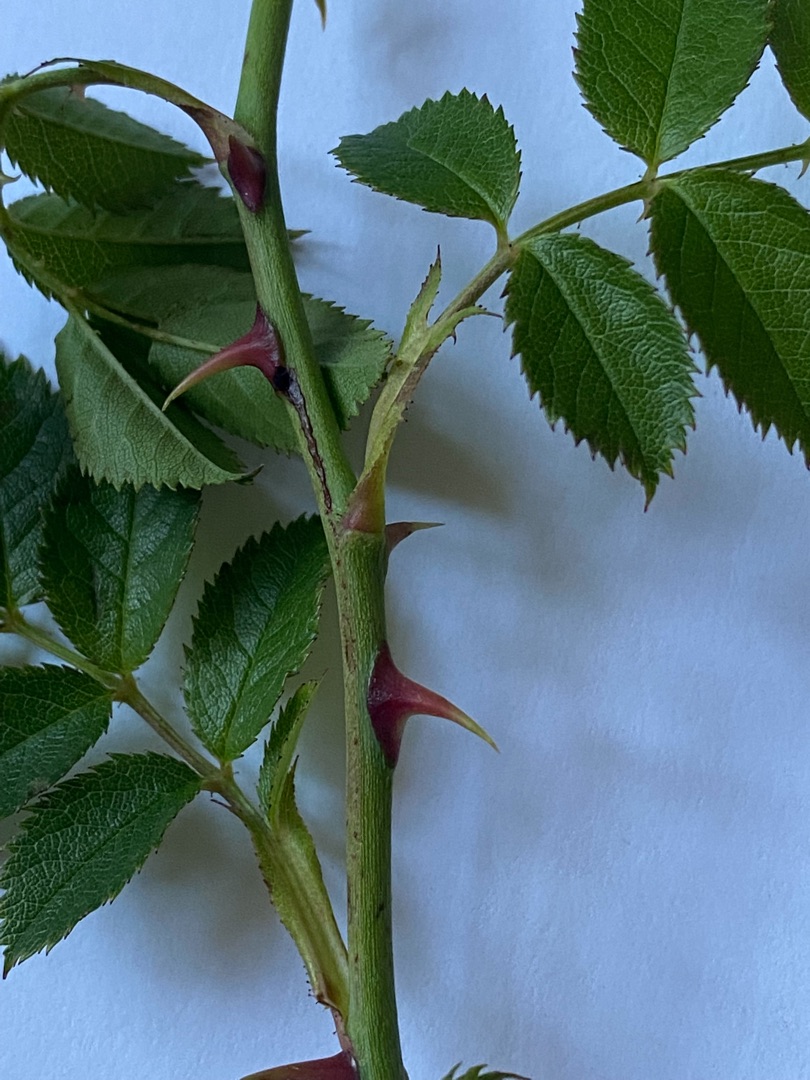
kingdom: Plantae
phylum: Tracheophyta
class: Magnoliopsida
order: Rosales
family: Rosaceae
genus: Rosa
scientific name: Rosa
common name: Roseslægten
